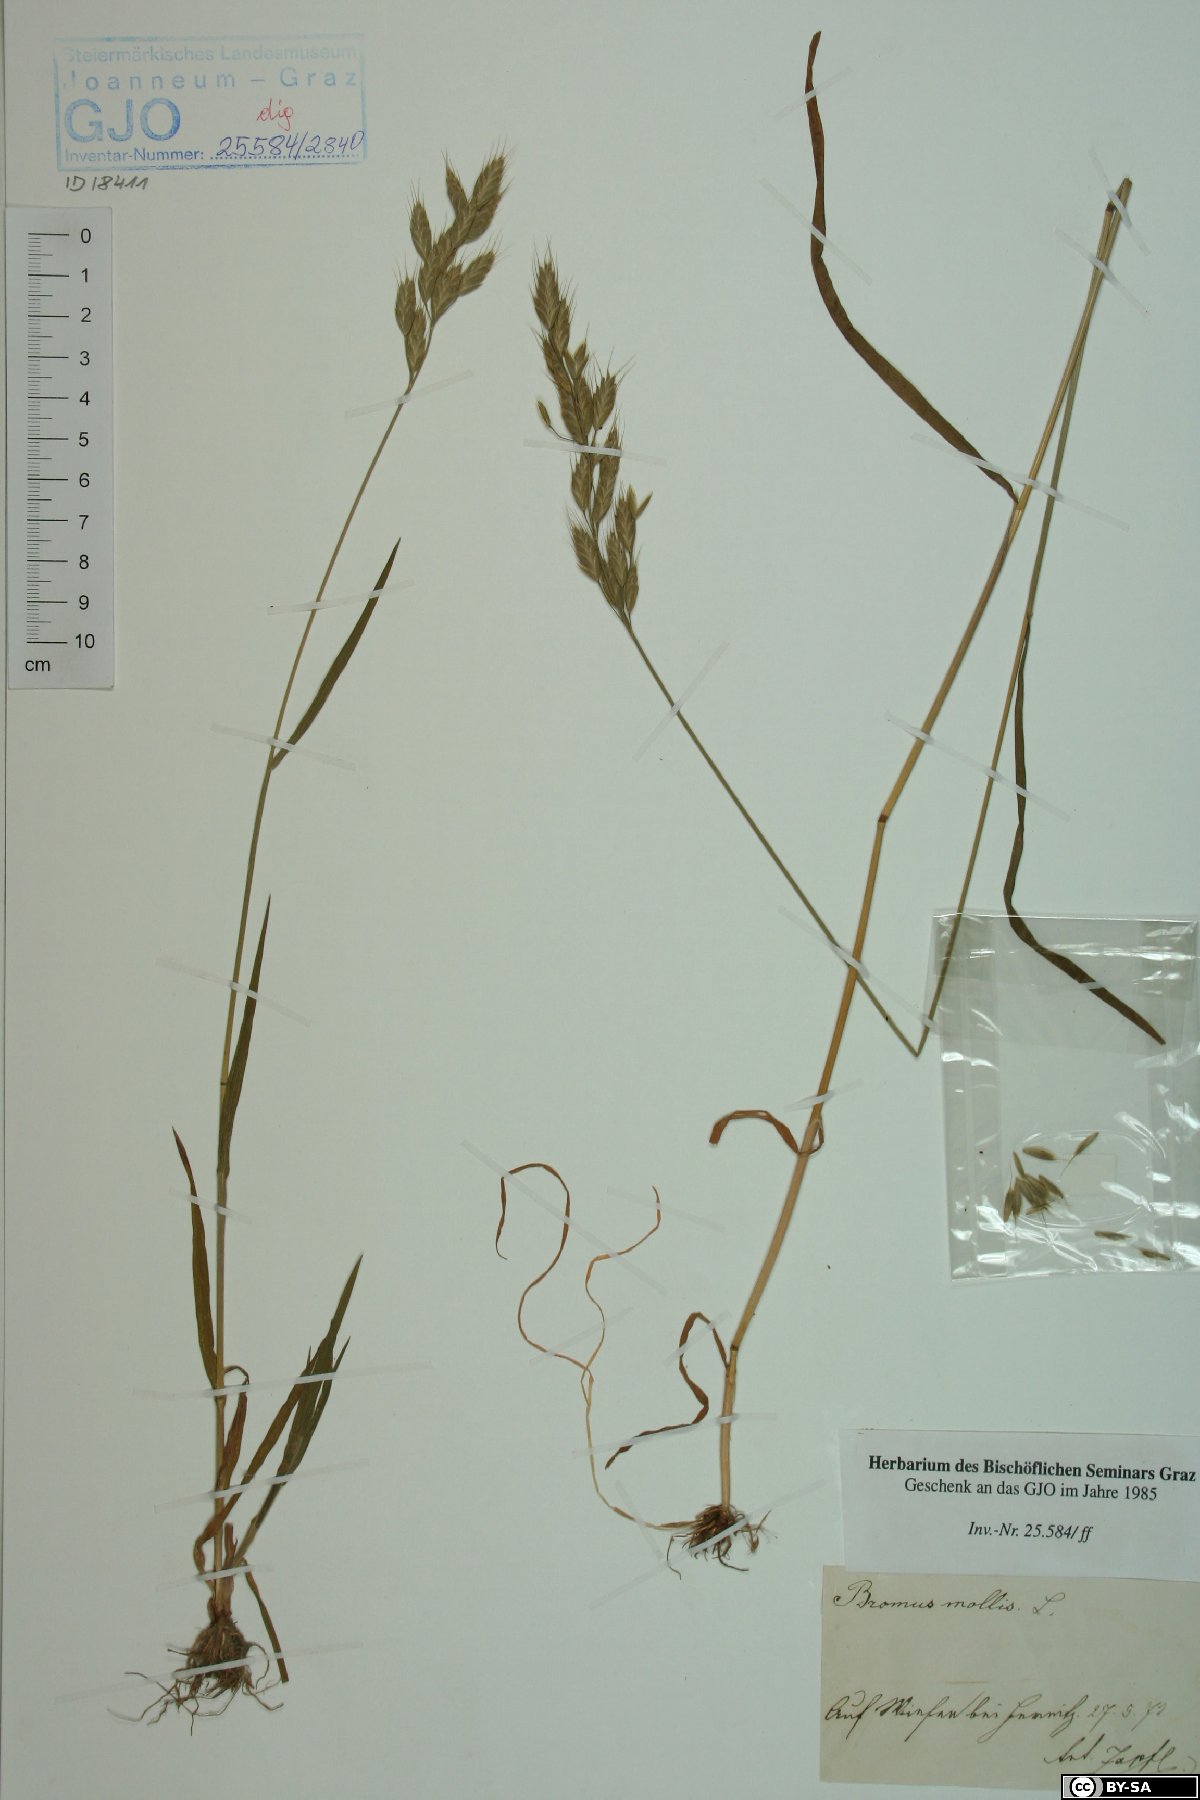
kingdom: Plantae
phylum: Tracheophyta
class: Liliopsida
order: Poales
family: Poaceae
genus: Bromus
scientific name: Bromus hordeaceus
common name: Soft brome
